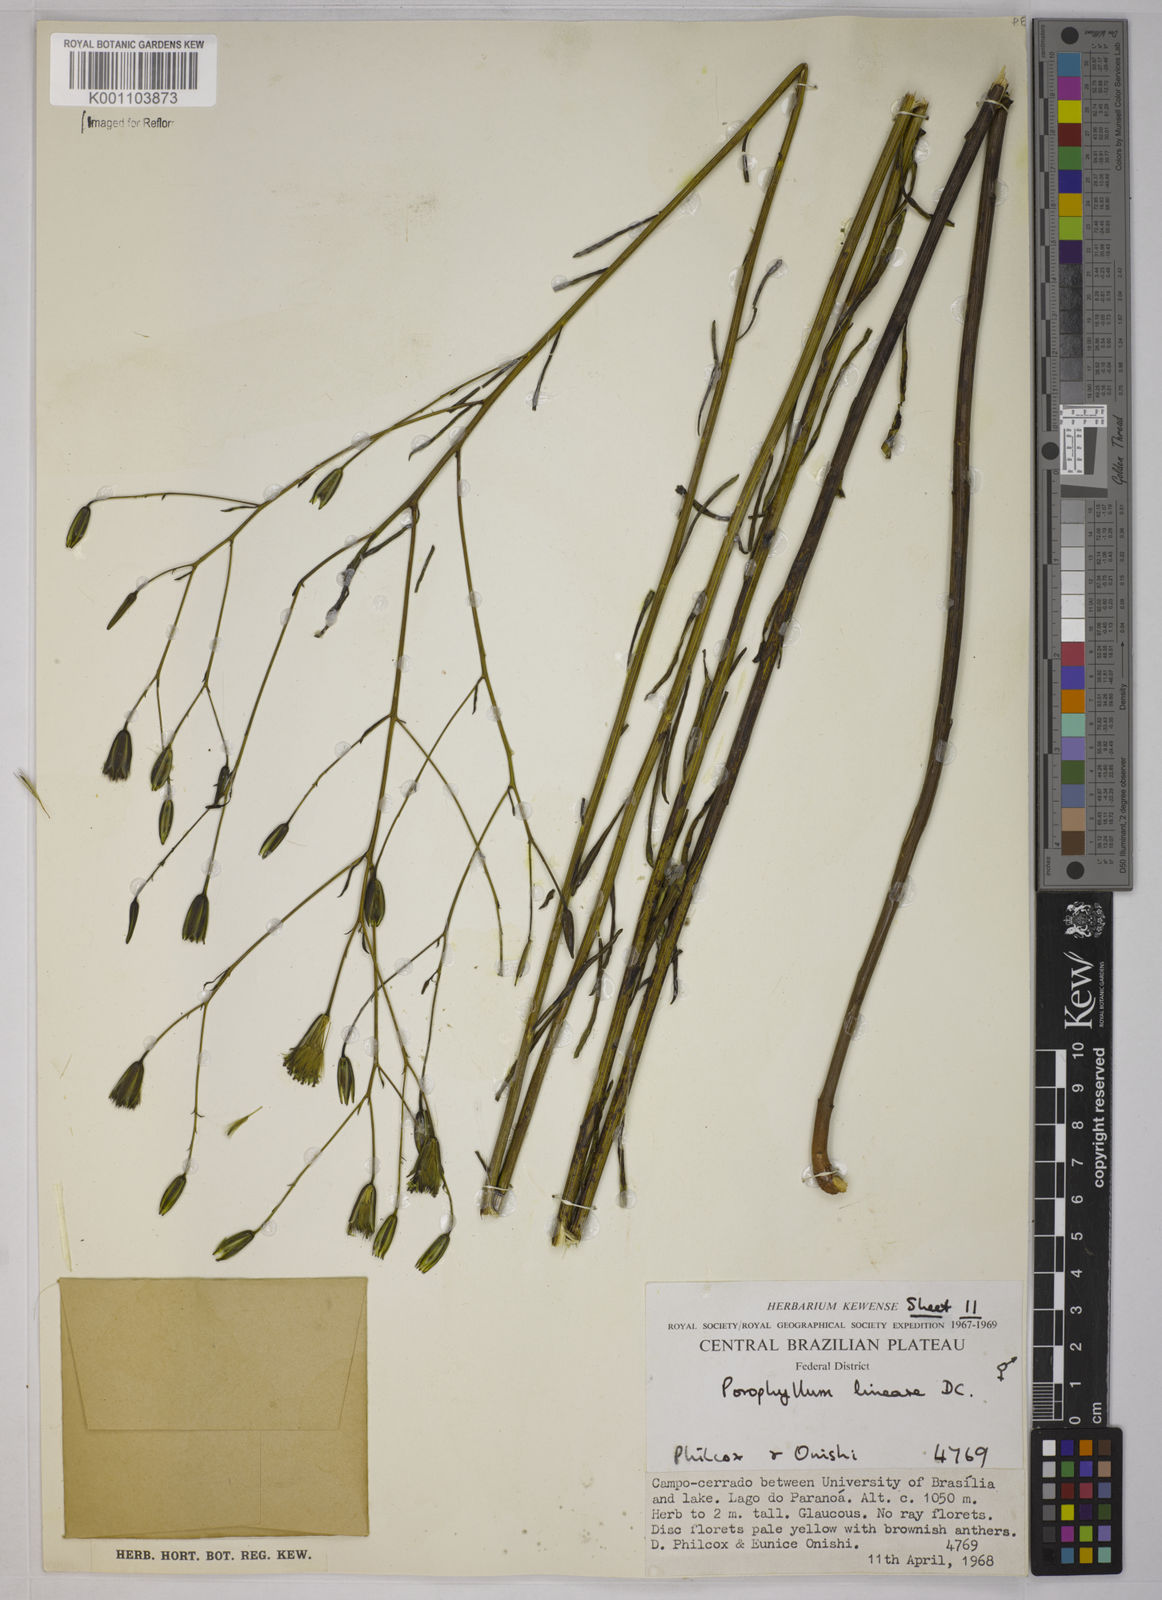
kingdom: Plantae
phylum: Tracheophyta
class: Magnoliopsida
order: Asterales
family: Asteraceae
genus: Porophyllum
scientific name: Porophyllum obscurum
